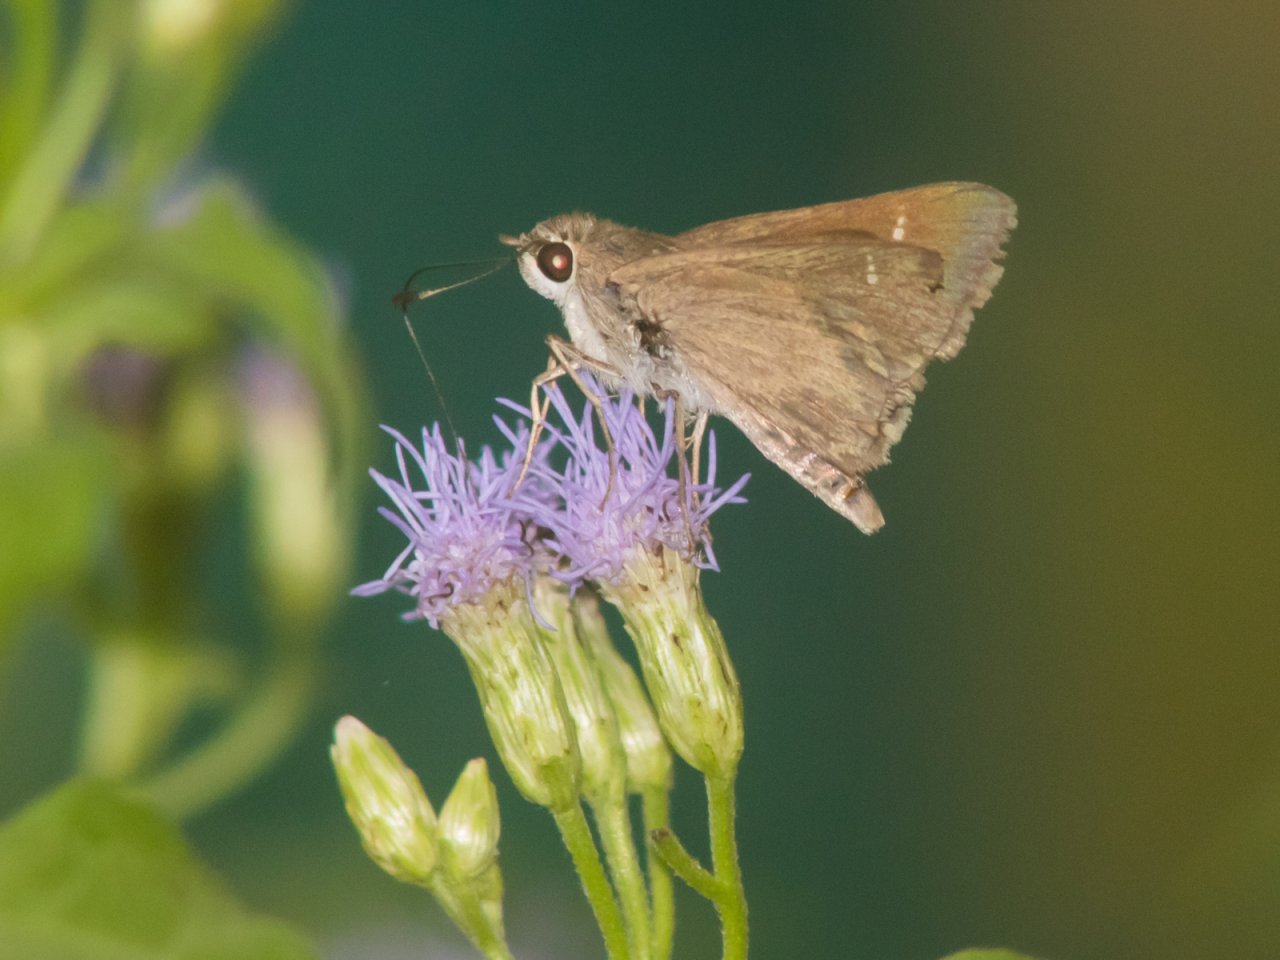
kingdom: Animalia
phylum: Arthropoda
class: Insecta
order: Lepidoptera
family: Hesperiidae
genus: Lerodea
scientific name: Lerodea eufala
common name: Eufala Skipper
